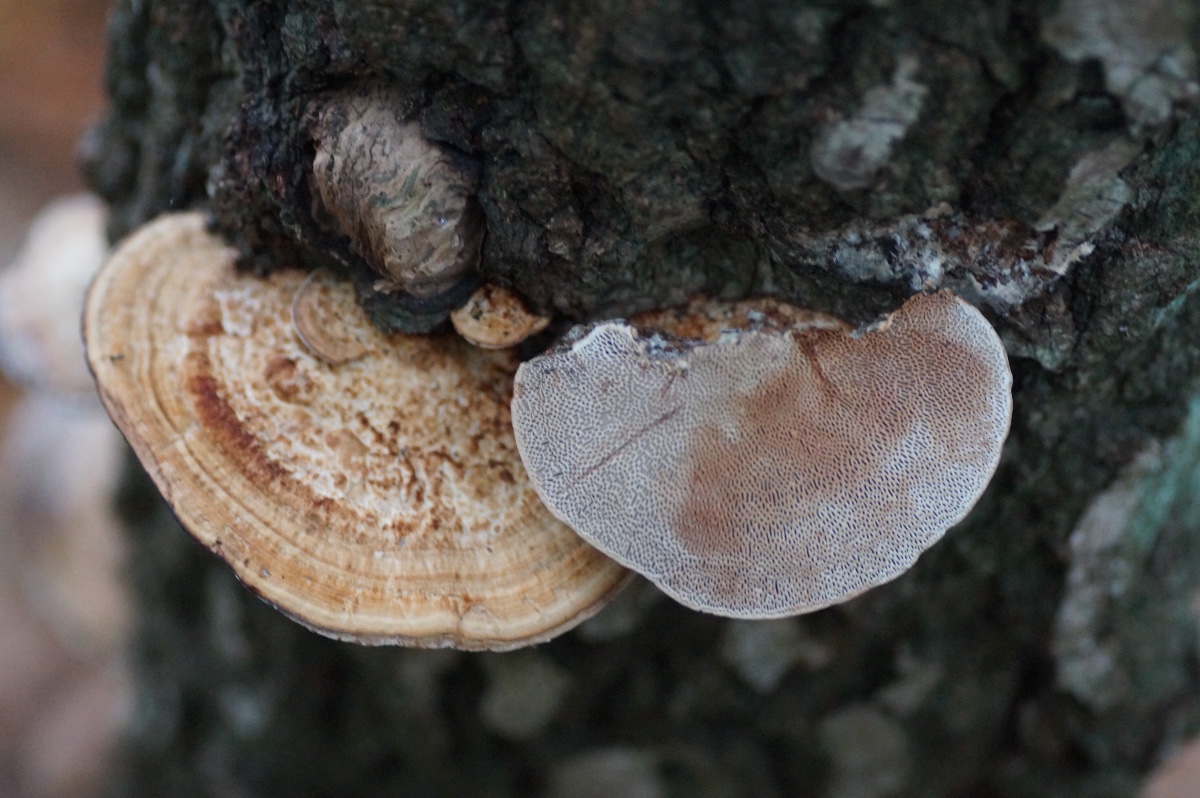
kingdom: Fungi
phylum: Basidiomycota
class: Agaricomycetes
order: Polyporales
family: Polyporaceae
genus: Daedaleopsis
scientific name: Daedaleopsis confragosa
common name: rødmende læderporesvamp
